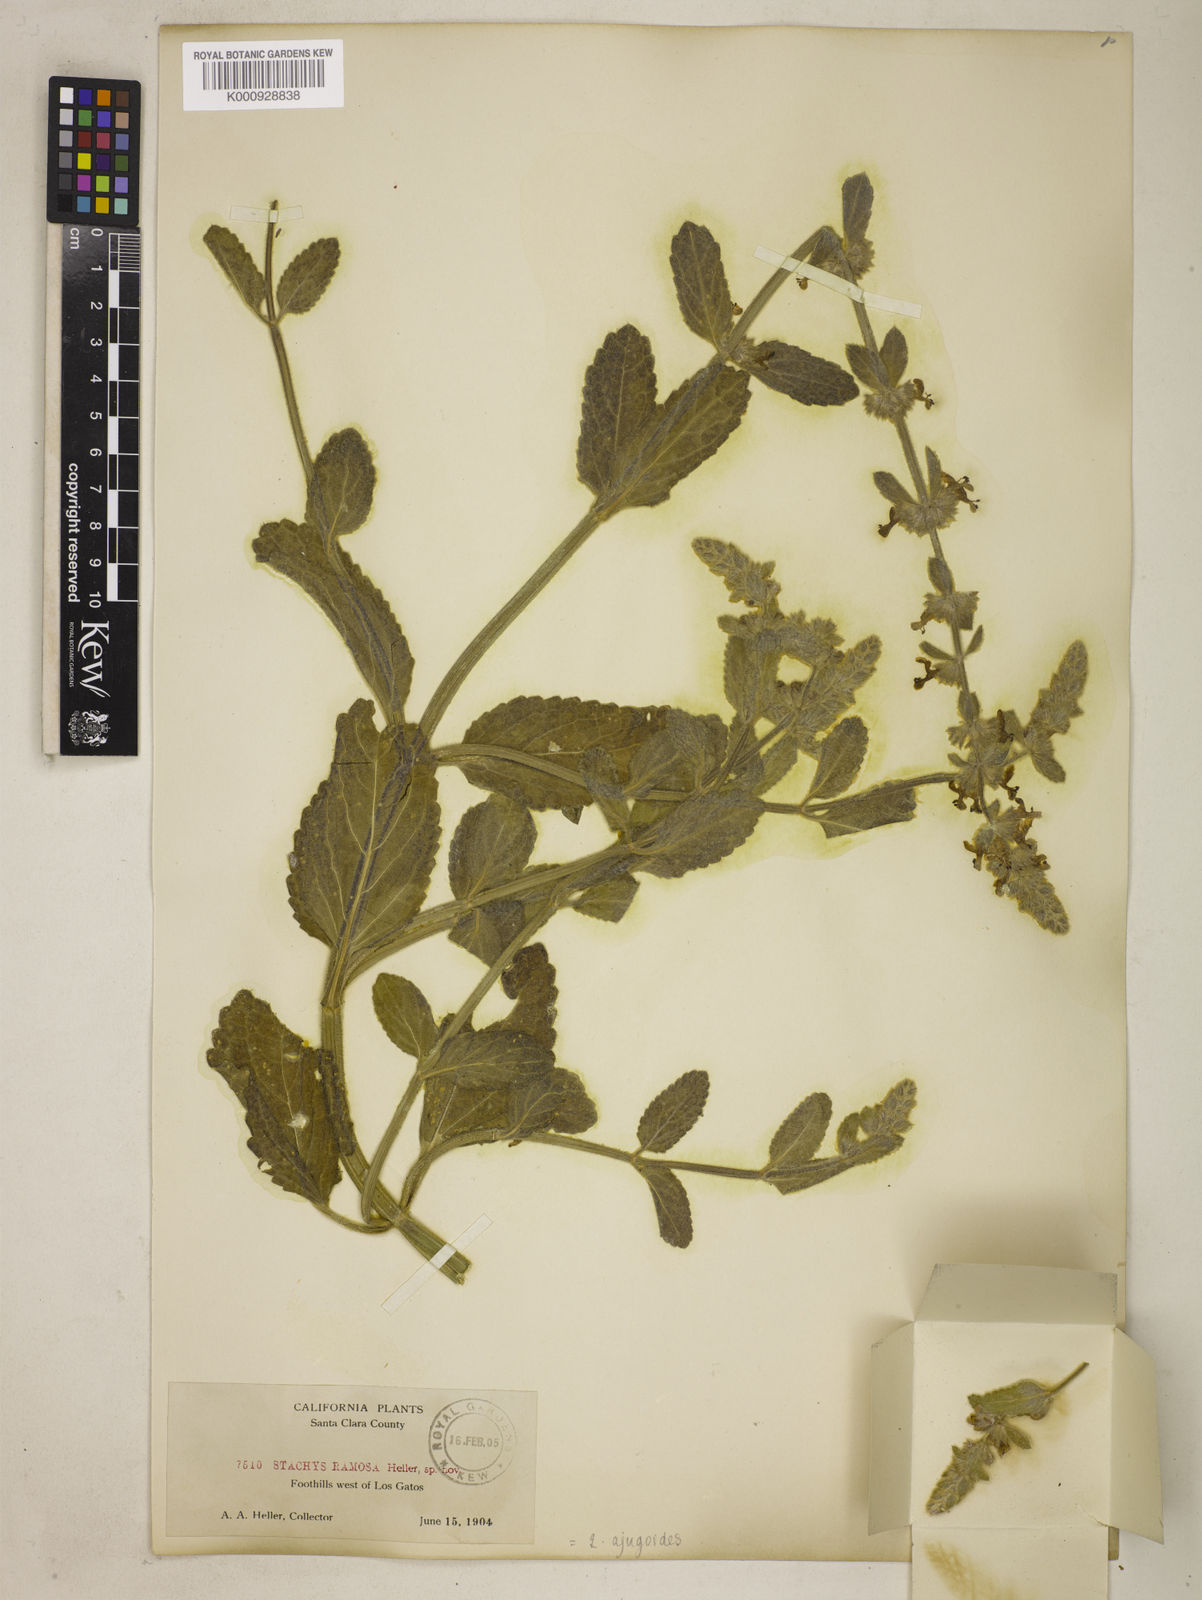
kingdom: Plantae
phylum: Tracheophyta
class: Magnoliopsida
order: Lamiales
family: Lamiaceae
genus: Stachys
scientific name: Stachys ajugoides
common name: Hedge-nettle
